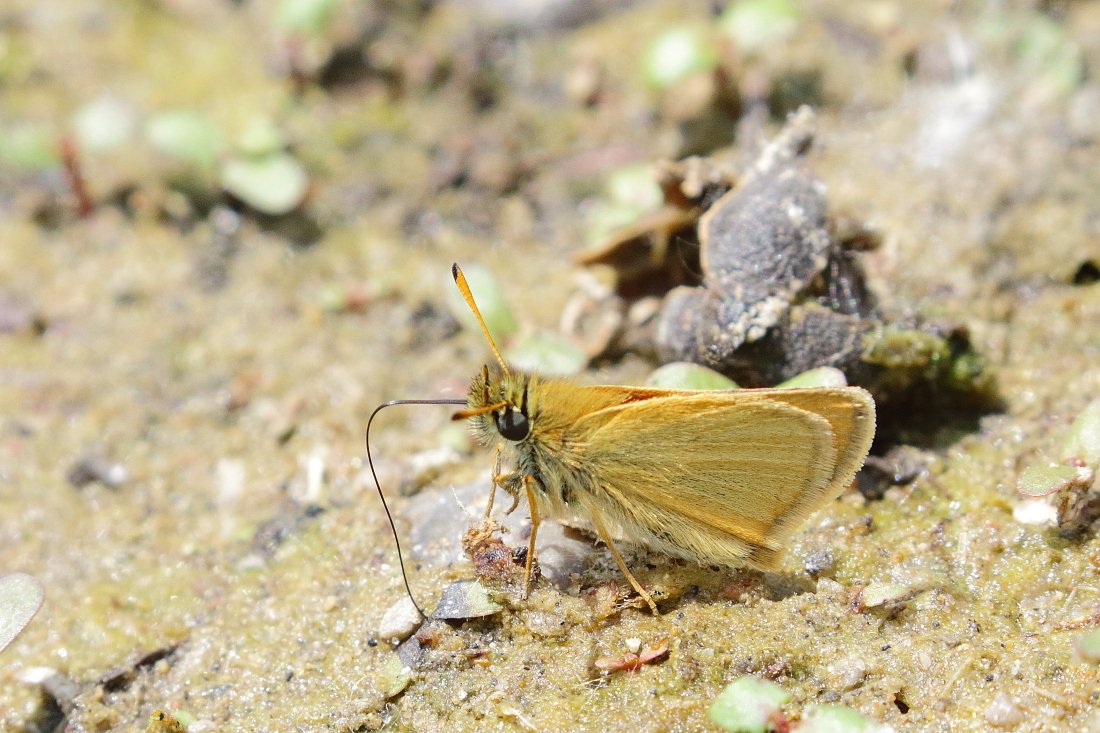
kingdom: Animalia
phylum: Arthropoda
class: Insecta
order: Lepidoptera
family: Hesperiidae
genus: Thymelicus
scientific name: Thymelicus lineola
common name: European Skipper
